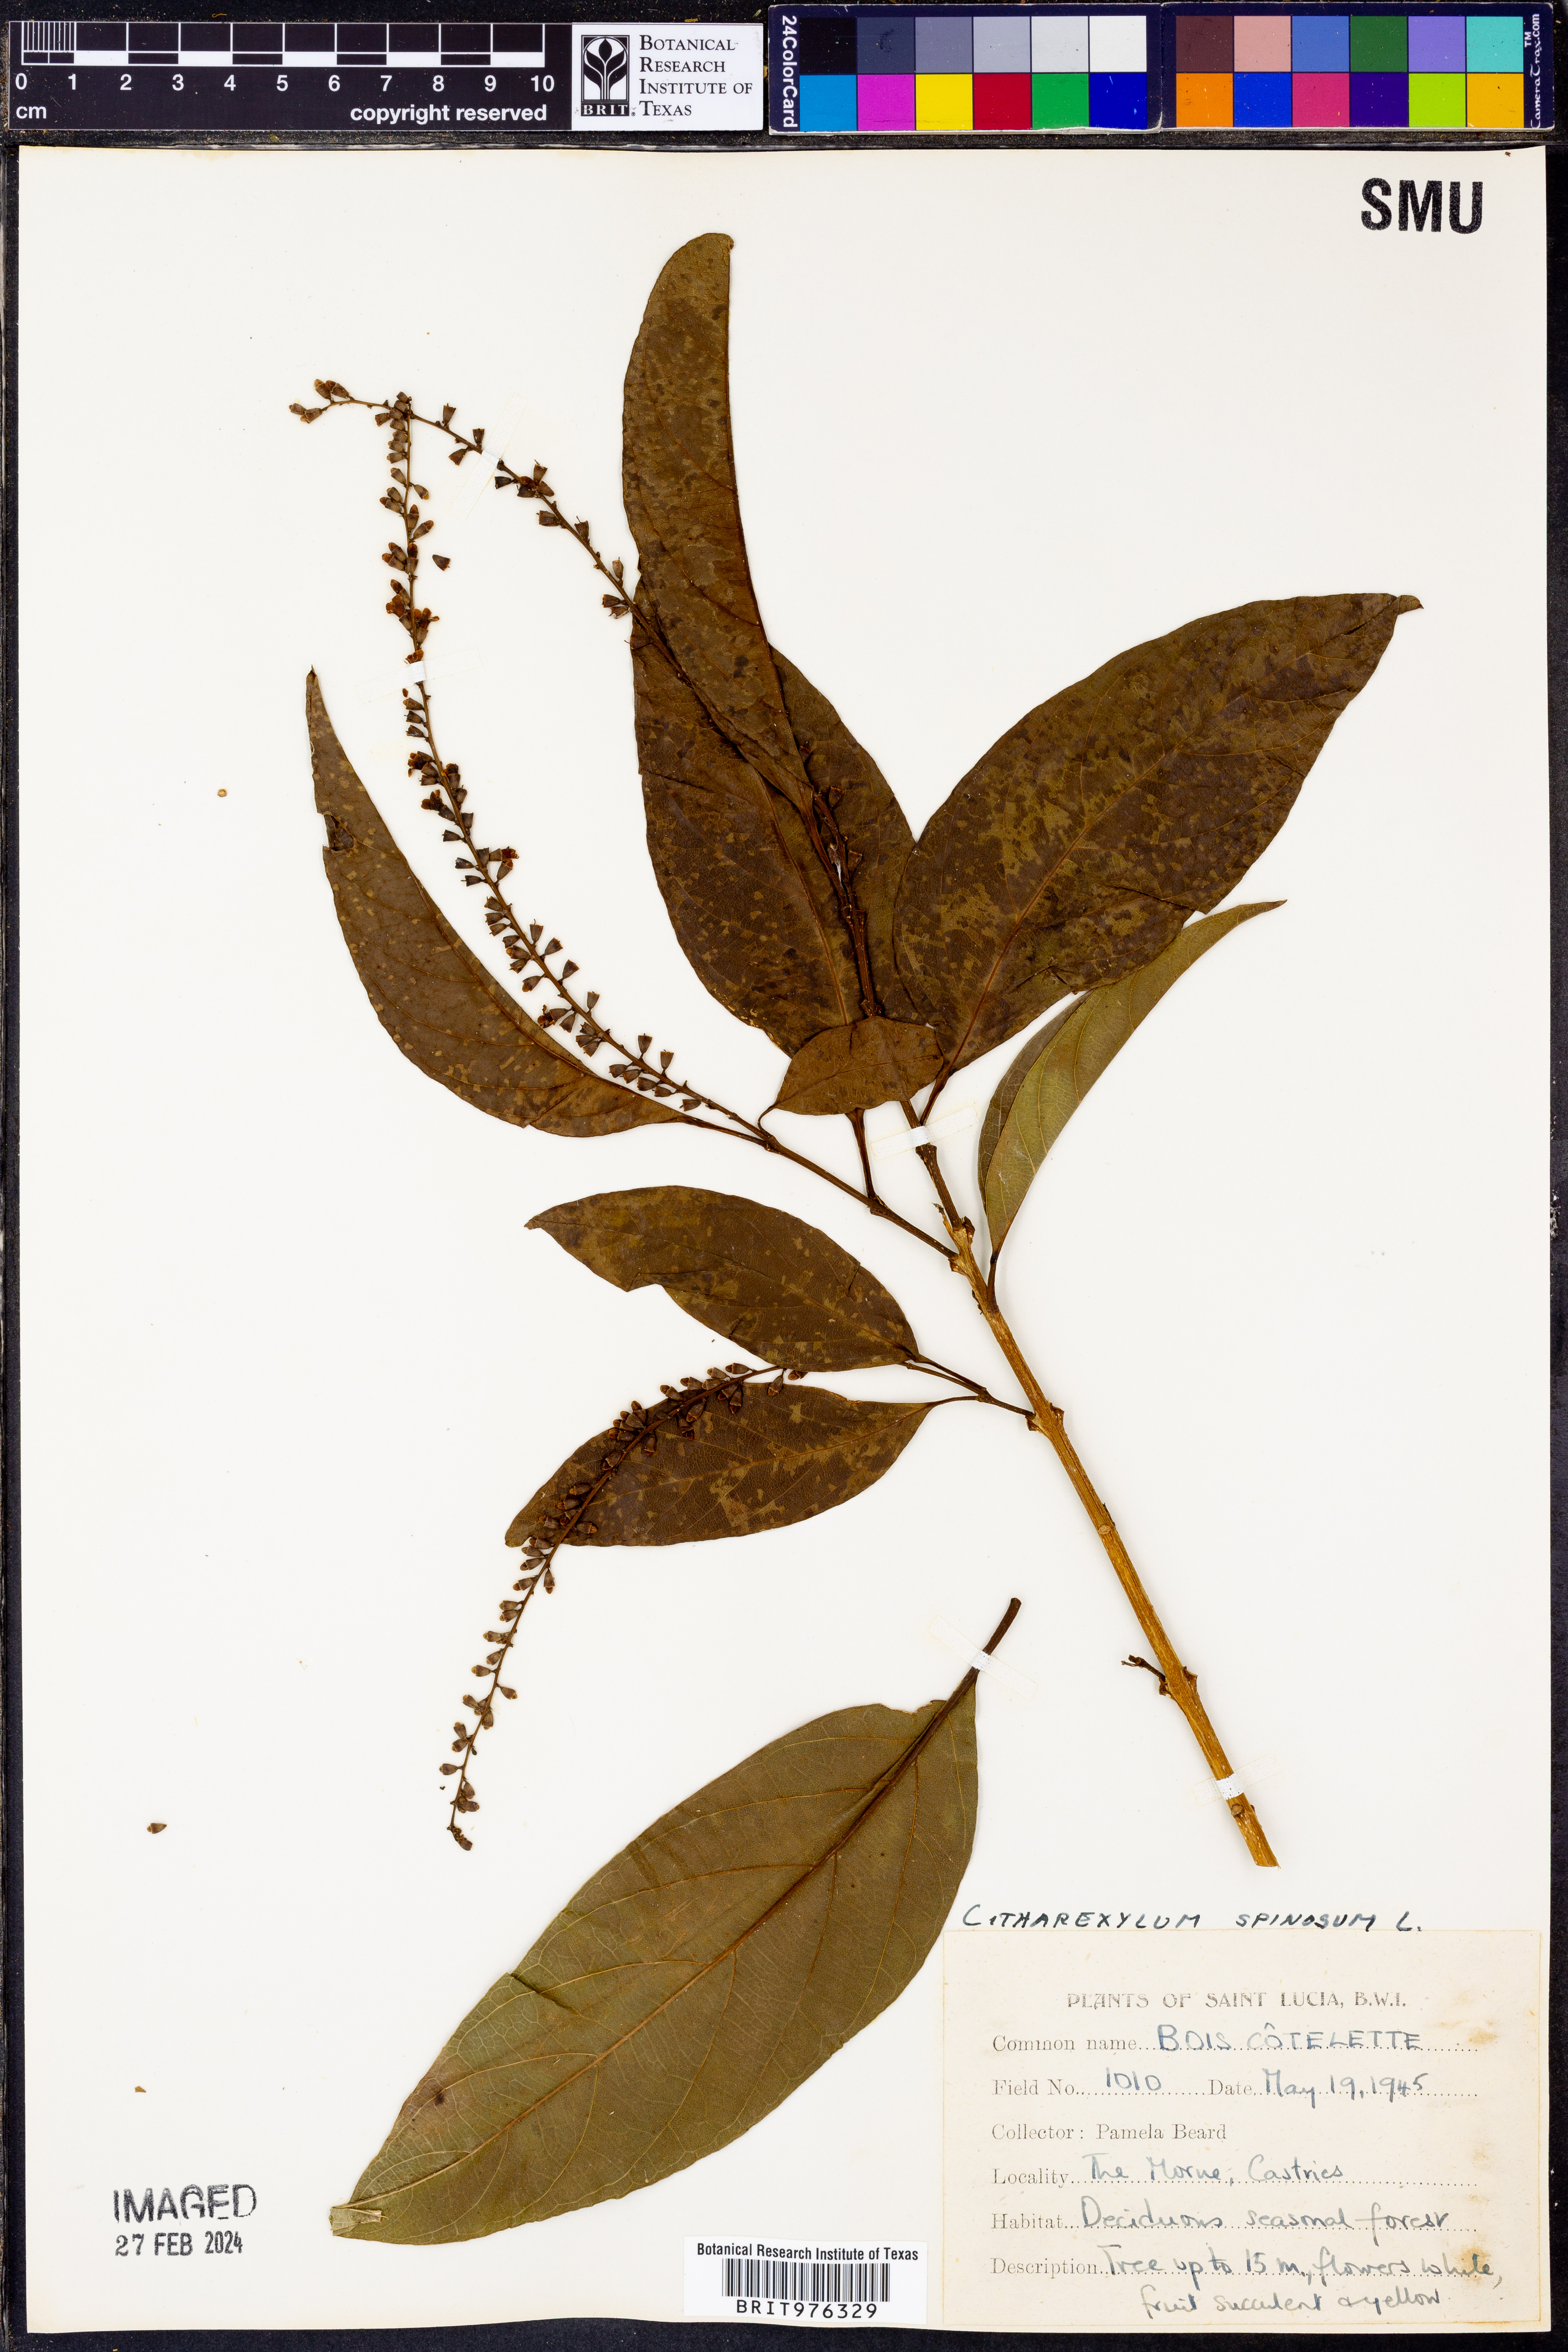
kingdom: Plantae
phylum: Tracheophyta
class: Magnoliopsida
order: Lamiales
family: Verbenaceae
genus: Citharexylum
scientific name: Citharexylum
